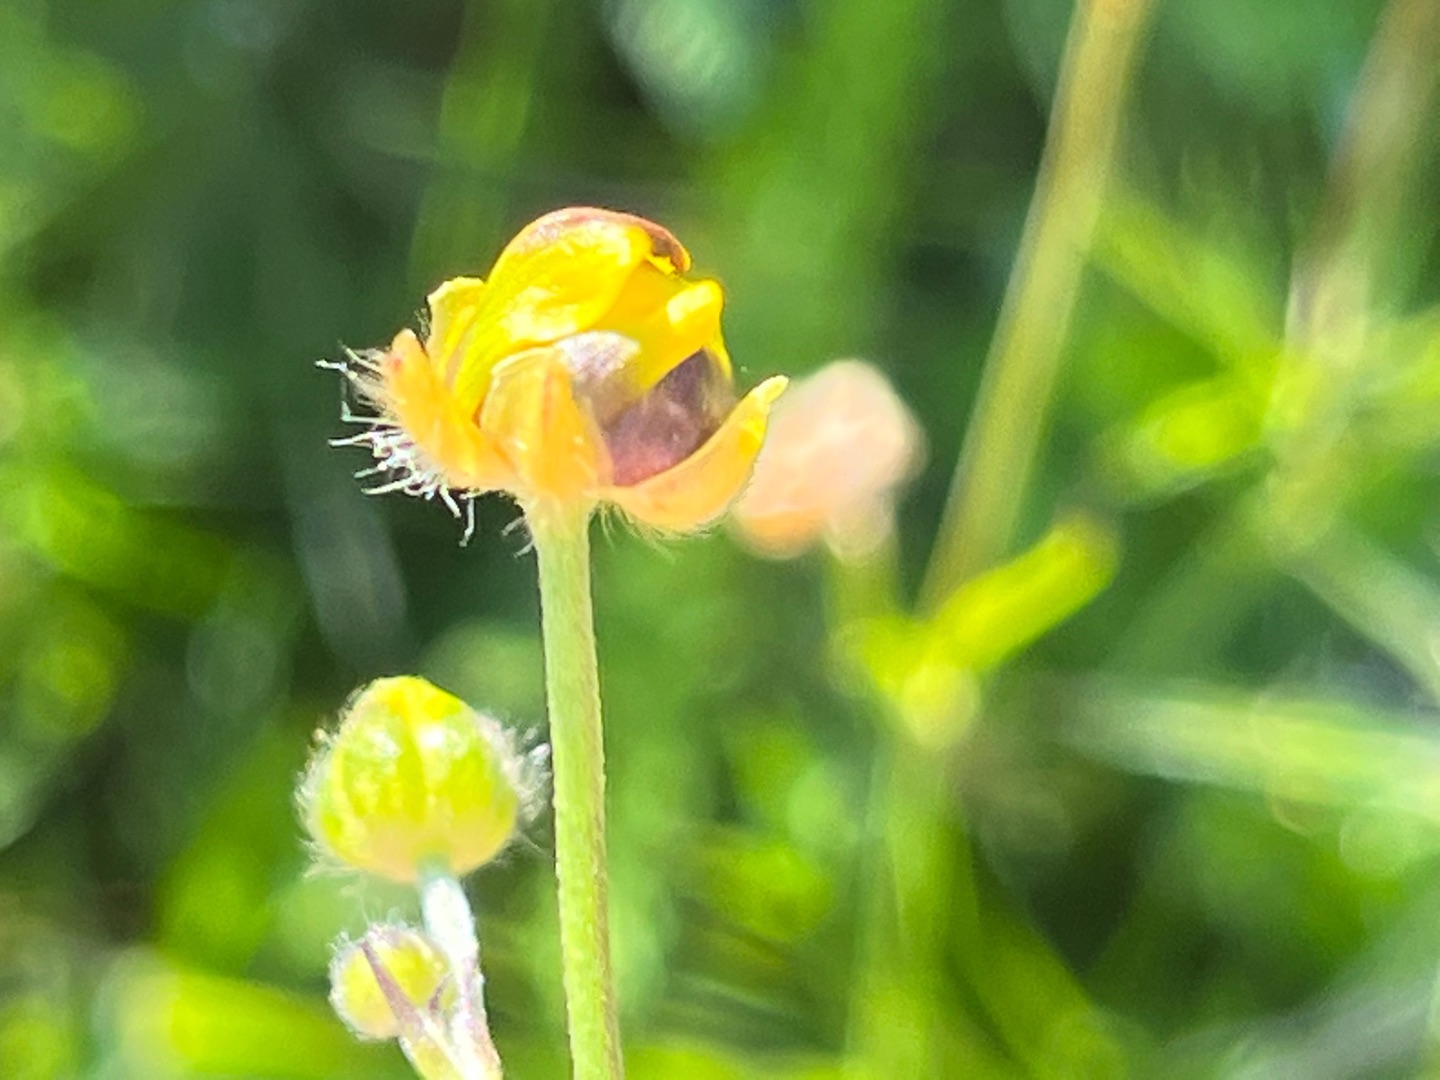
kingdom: Animalia
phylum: Arthropoda
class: Insecta
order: Diptera
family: Cecidomyiidae
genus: Dasineura
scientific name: Dasineura traili
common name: Smørblomstgalmyg
